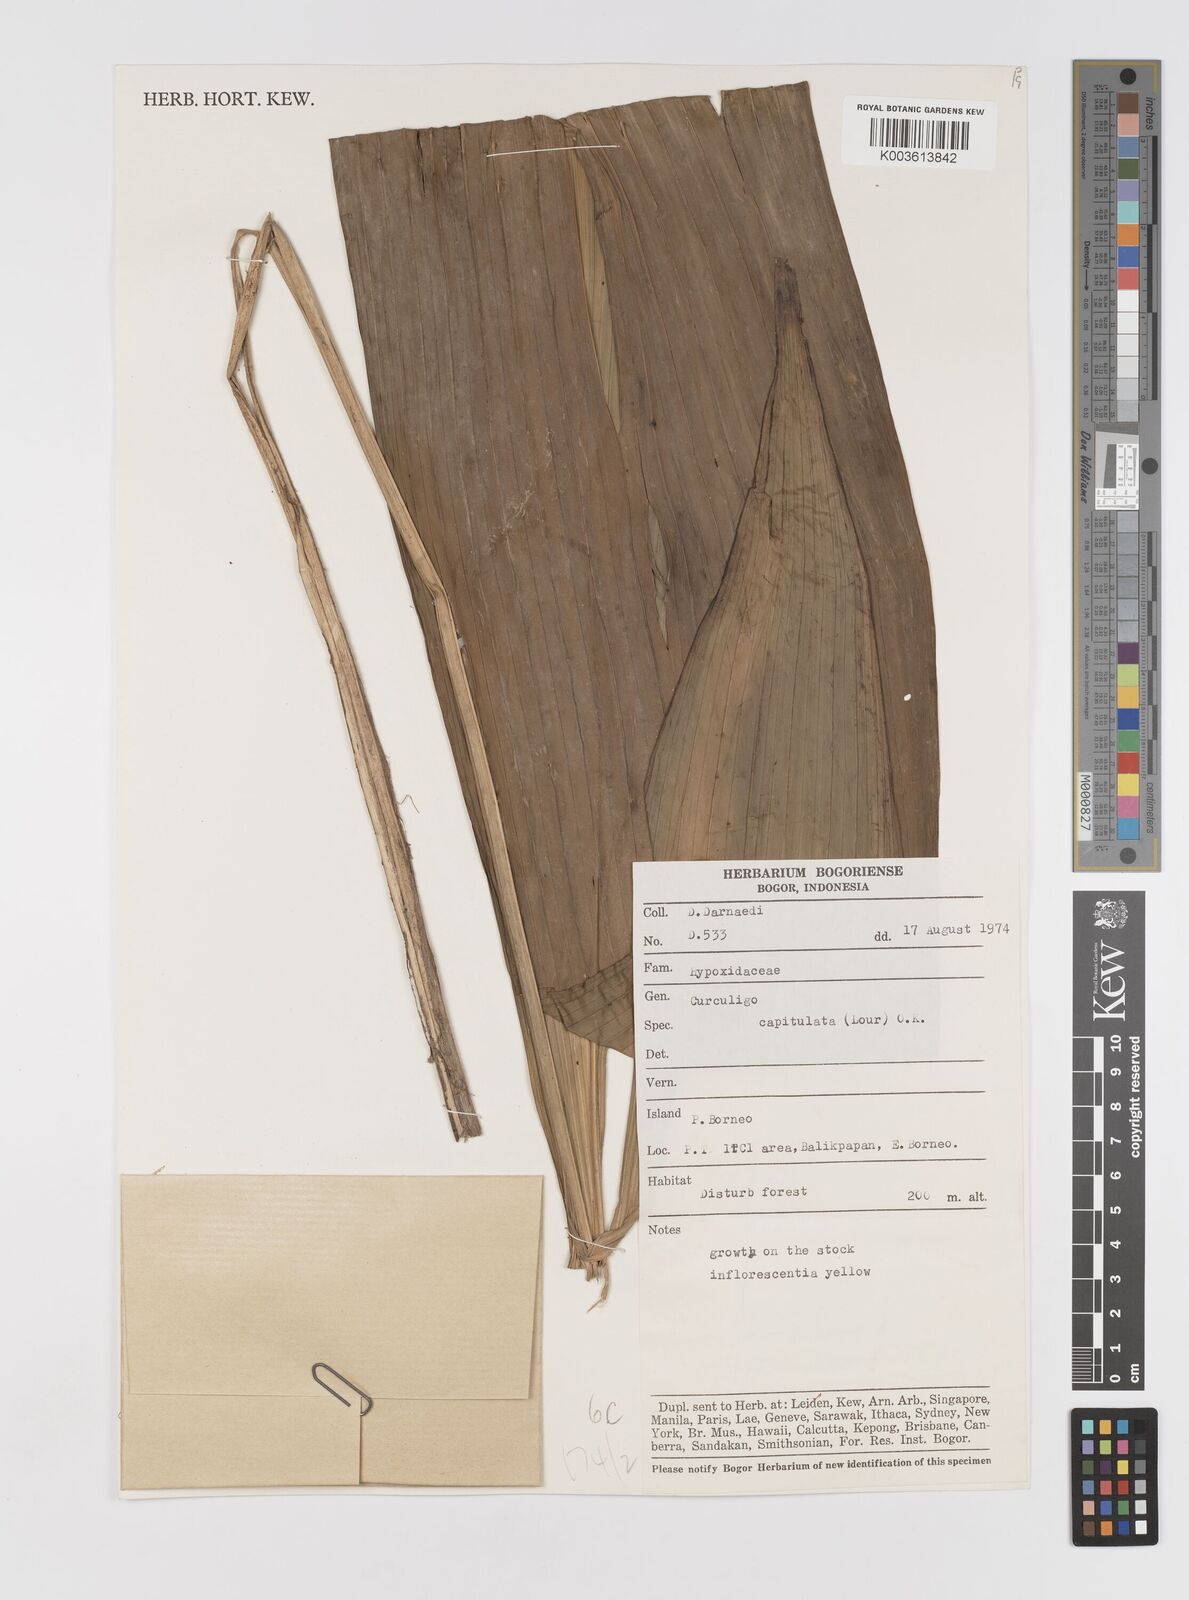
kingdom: Plantae
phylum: Tracheophyta
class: Liliopsida
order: Asparagales
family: Hypoxidaceae
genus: Curculigo
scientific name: Curculigo capitulata
